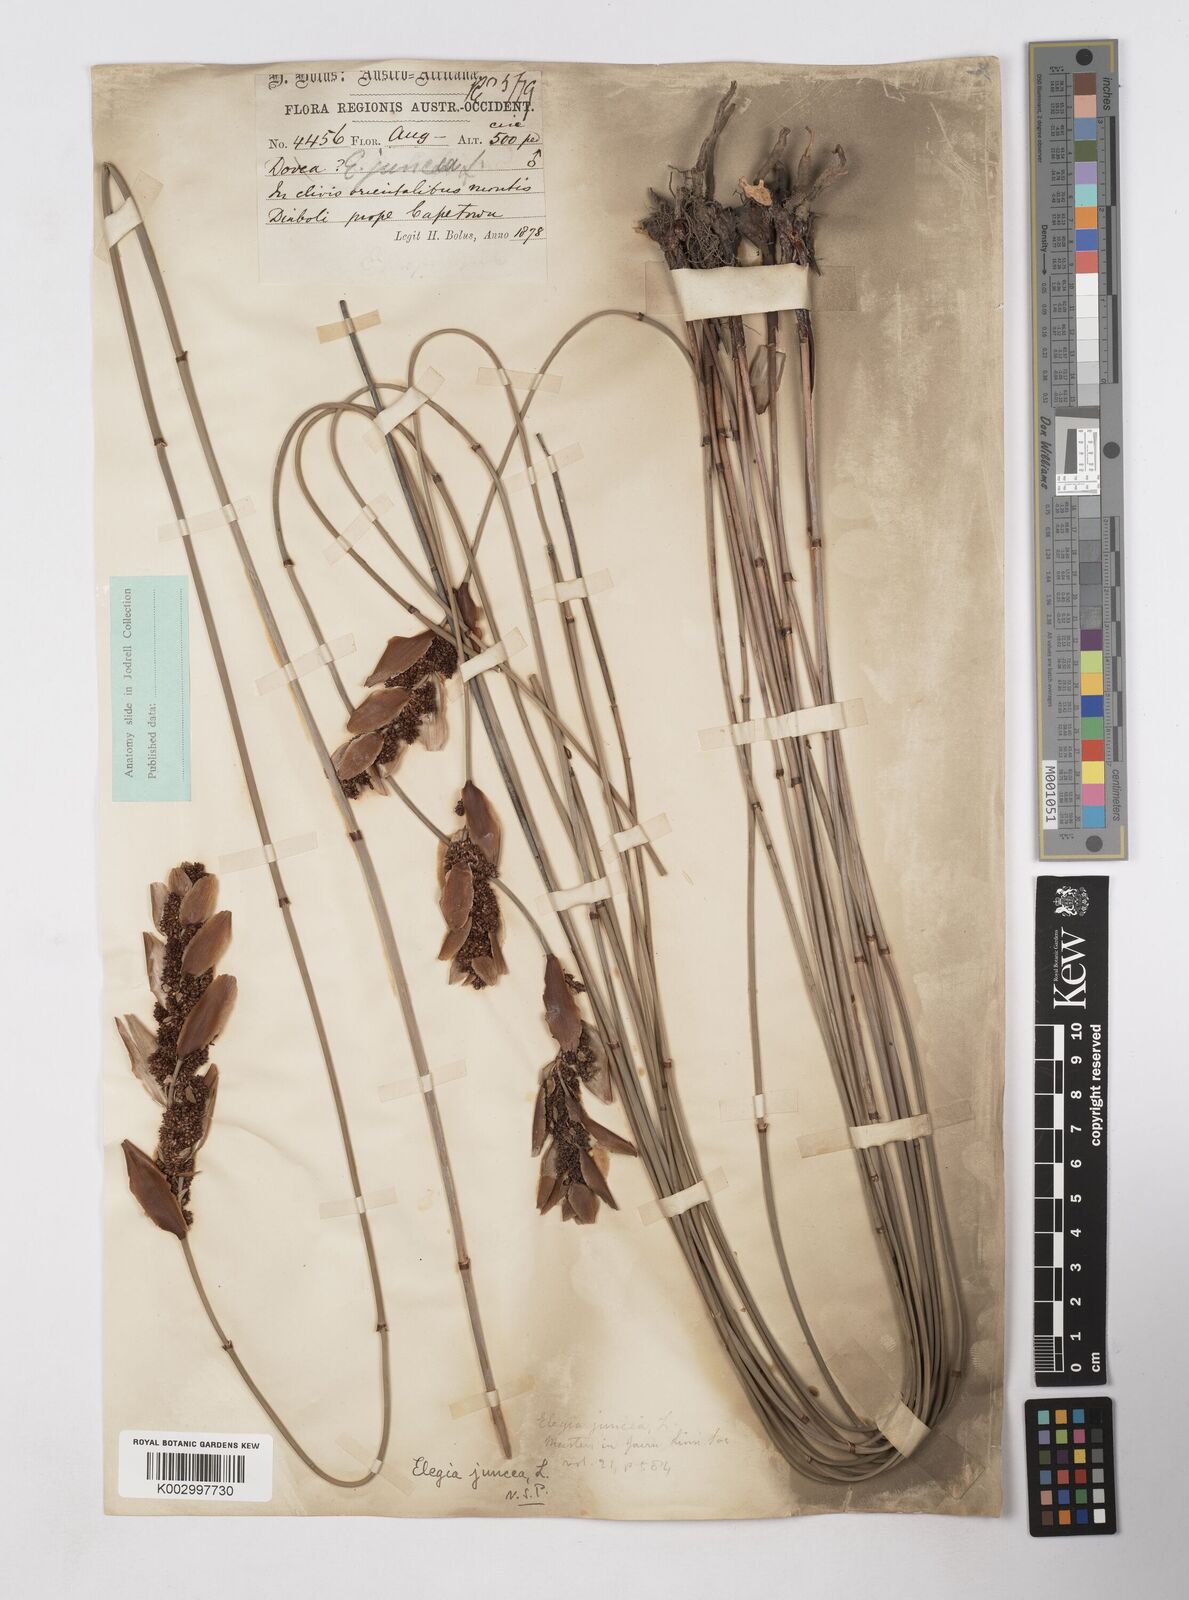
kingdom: Plantae
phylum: Tracheophyta
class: Liliopsida
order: Poales
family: Restionaceae
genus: Elegia
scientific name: Elegia juncea
